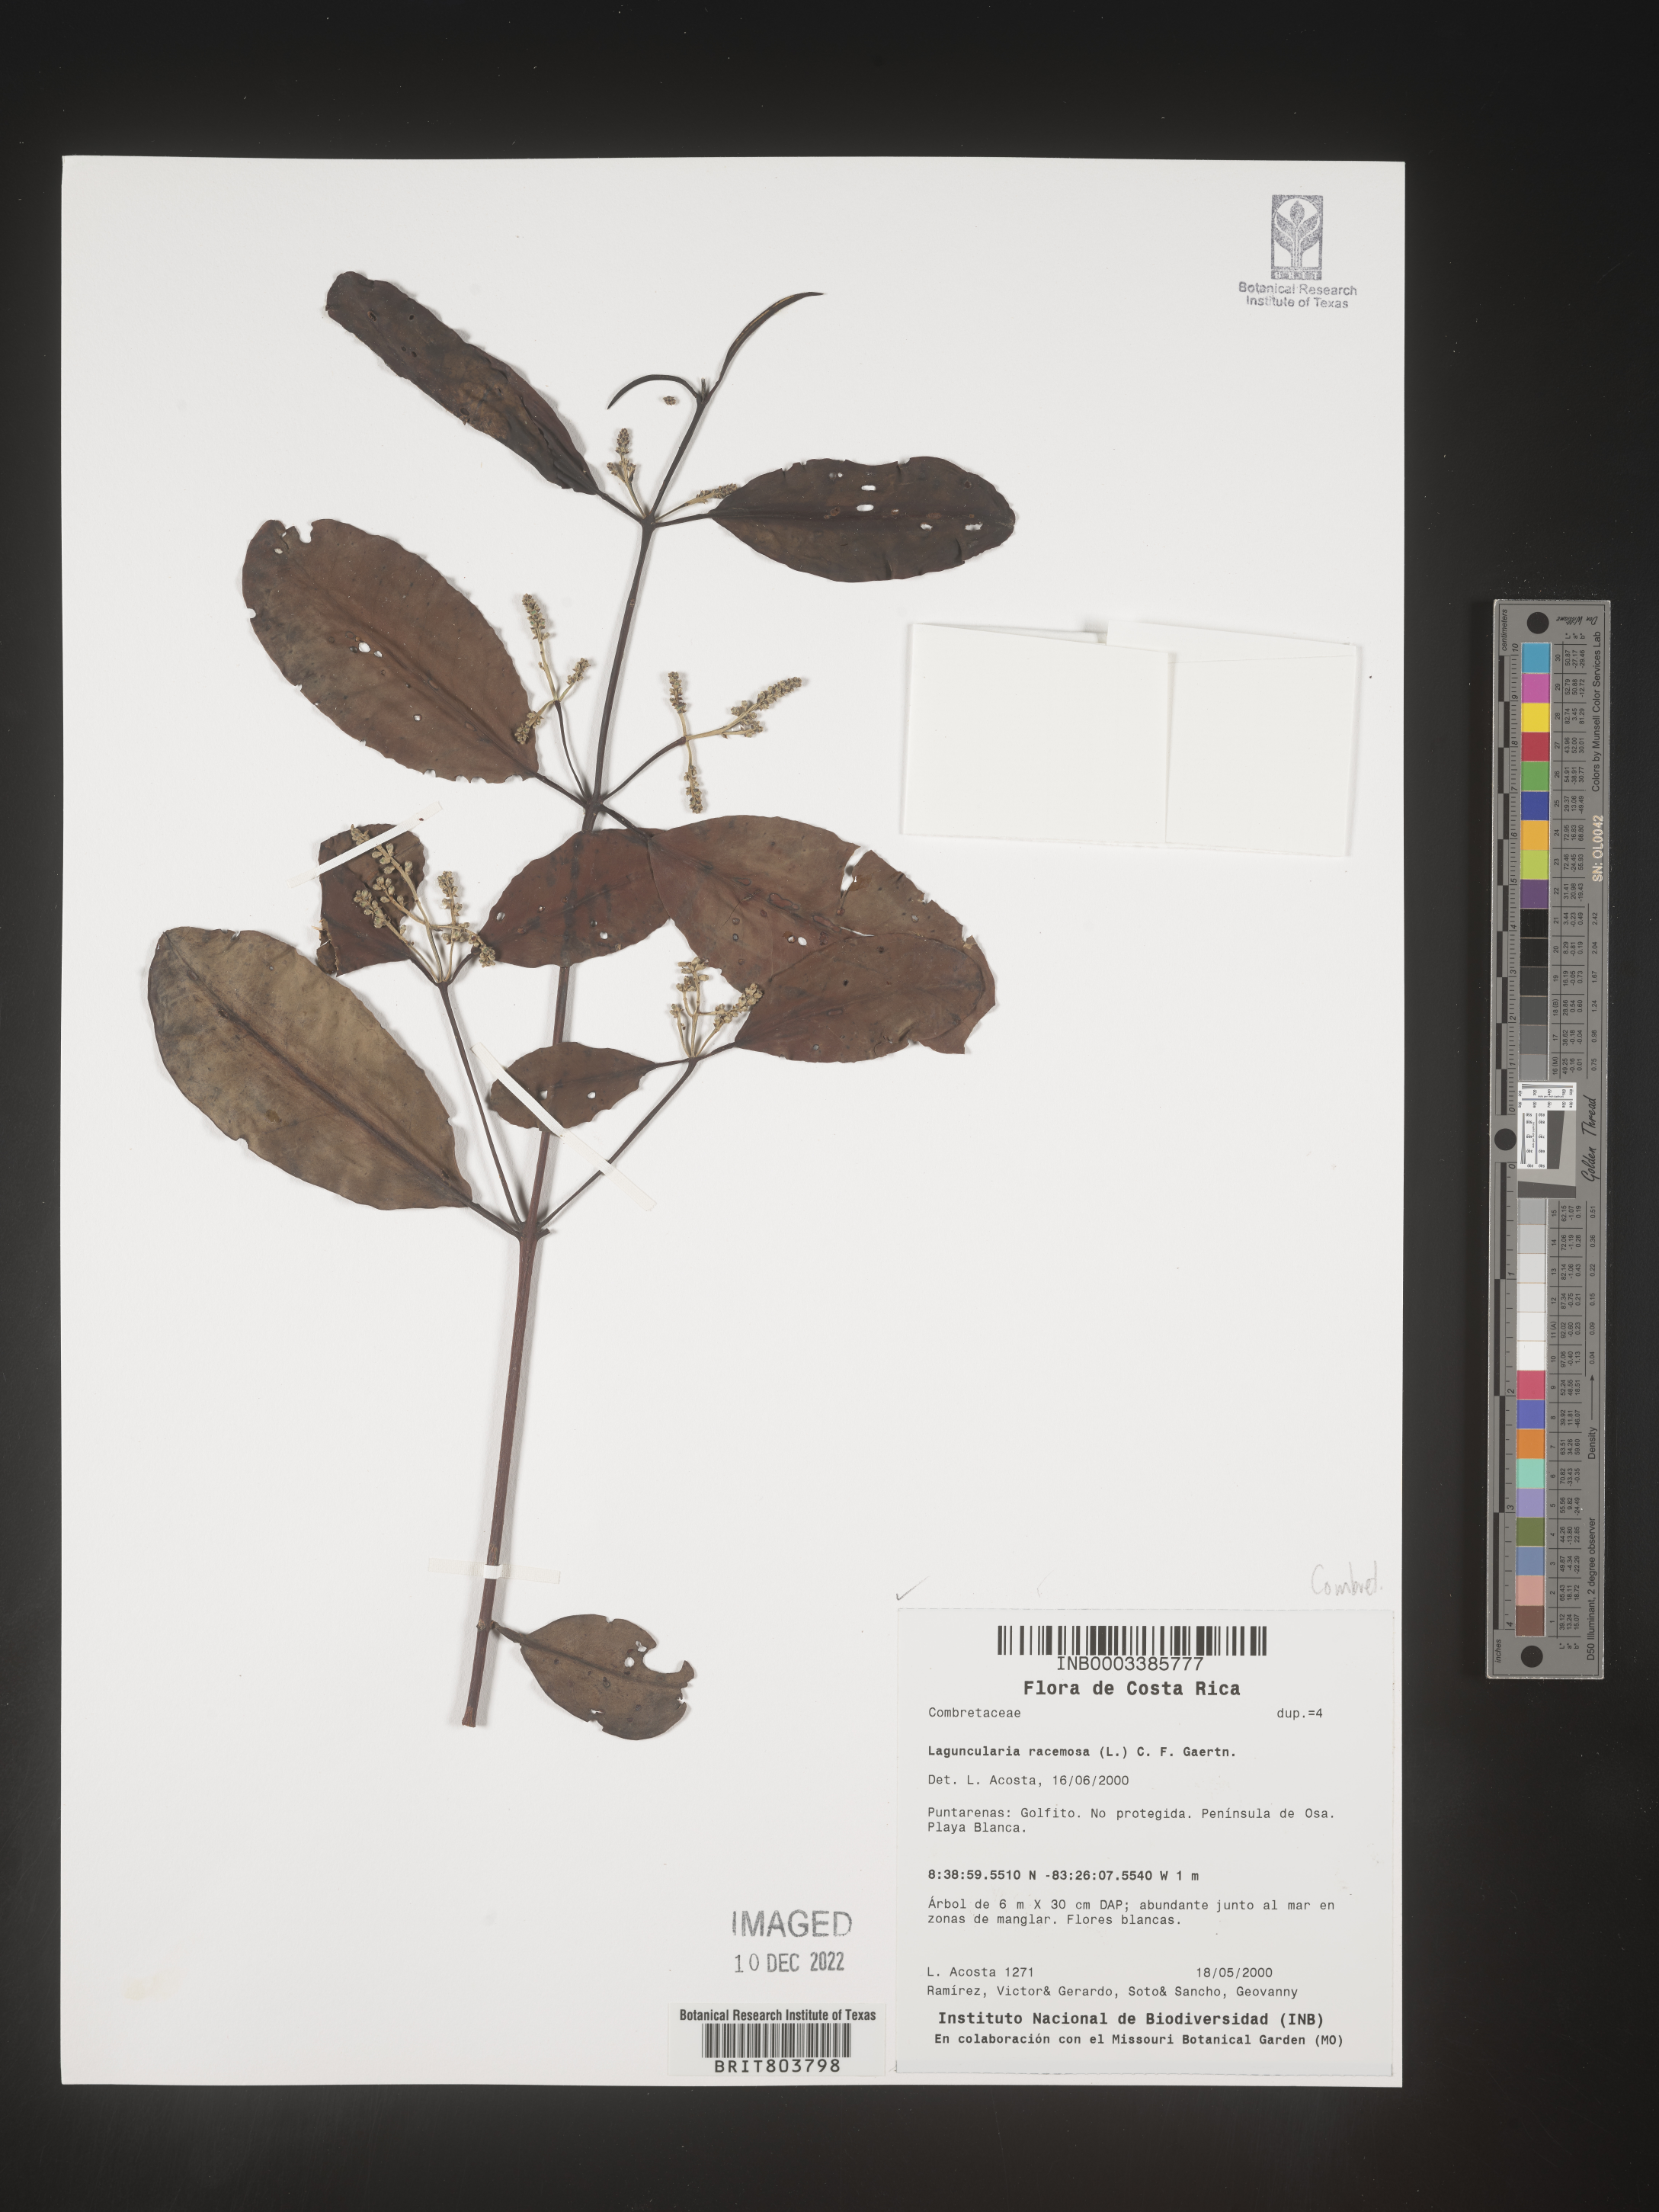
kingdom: Plantae
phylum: Tracheophyta
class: Magnoliopsida
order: Myrtales
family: Combretaceae
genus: Laguncularia
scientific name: Laguncularia
